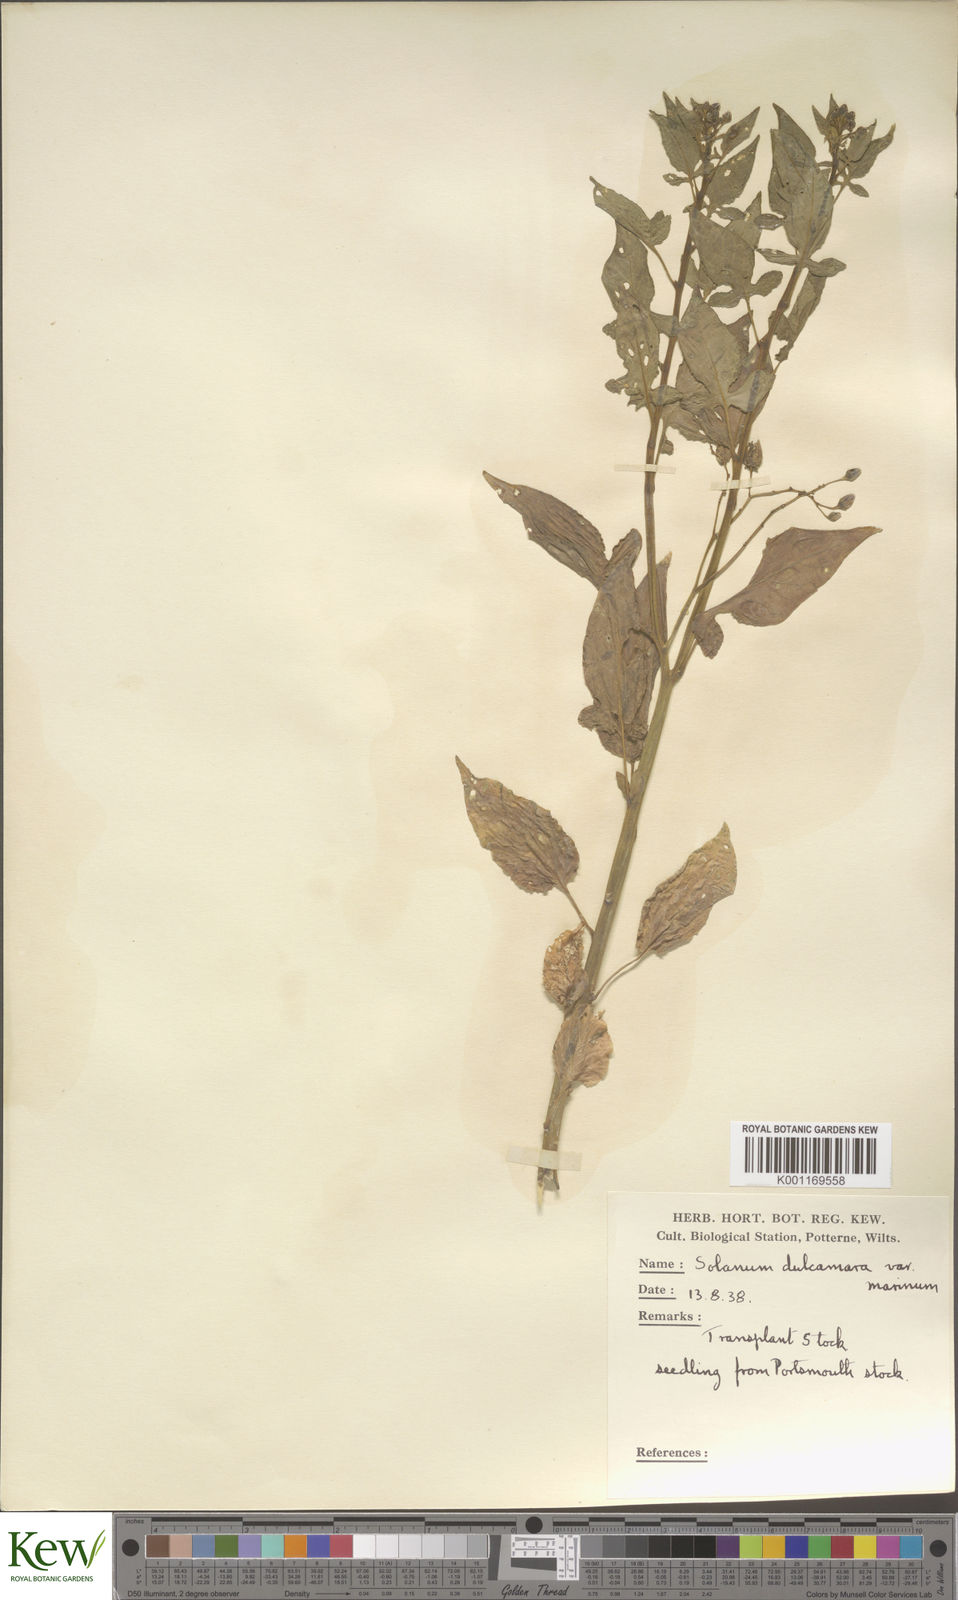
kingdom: Plantae
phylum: Tracheophyta
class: Magnoliopsida
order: Solanales
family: Solanaceae
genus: Solanum
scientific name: Solanum dulcamara
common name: Climbing nightshade
